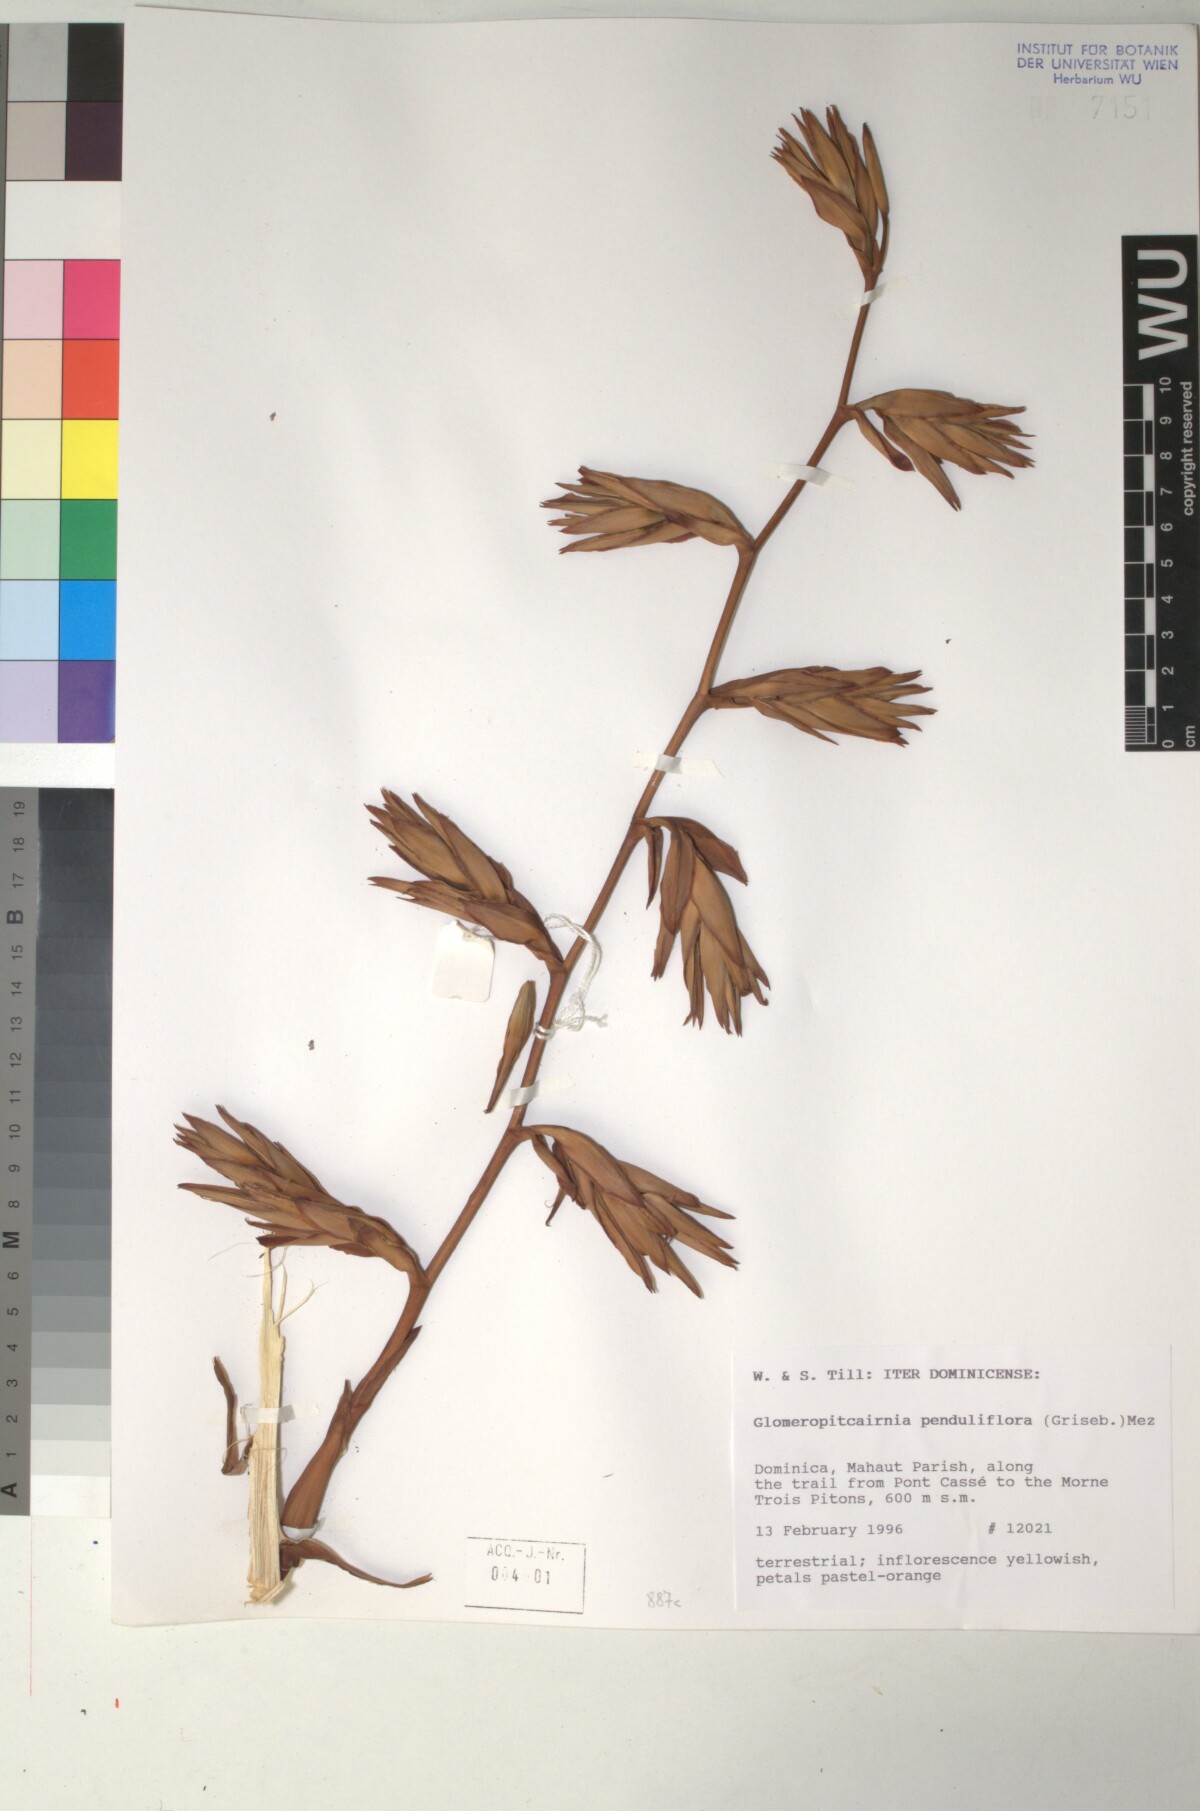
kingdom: Plantae
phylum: Tracheophyta
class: Liliopsida
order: Poales
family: Bromeliaceae
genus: Glomeropitcairnia
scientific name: Glomeropitcairnia penduliflora
